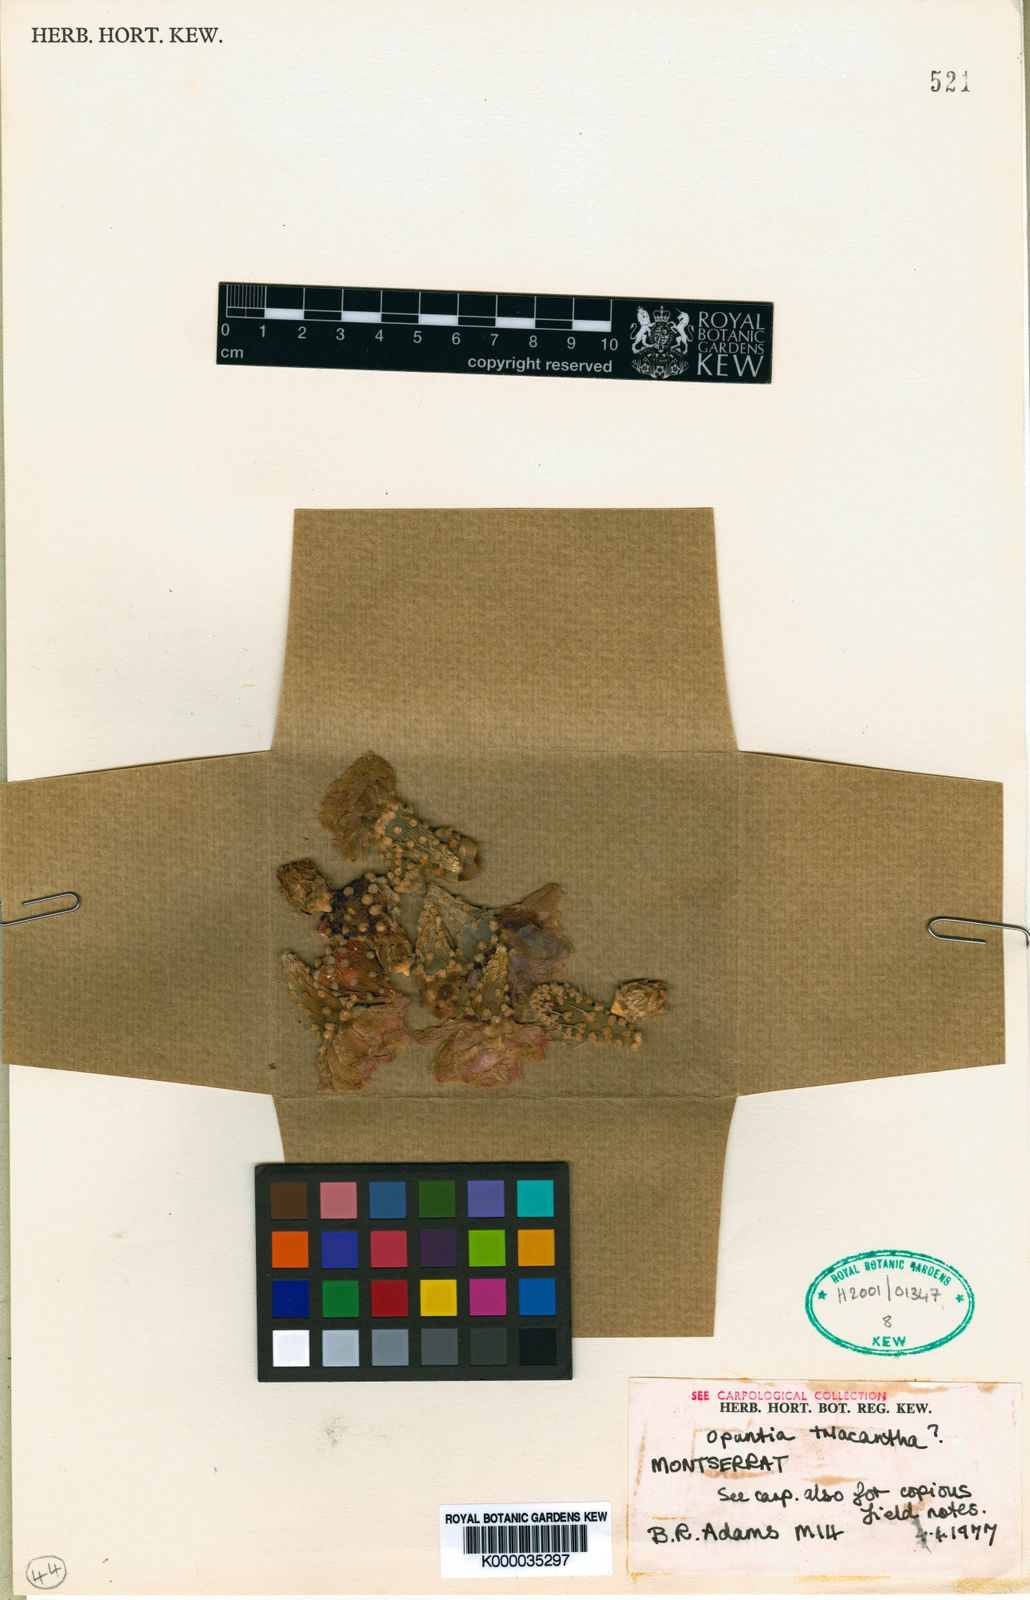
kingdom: Plantae
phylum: Tracheophyta
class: Magnoliopsida
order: Caryophyllales
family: Cactaceae
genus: Opuntia
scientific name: Opuntia
